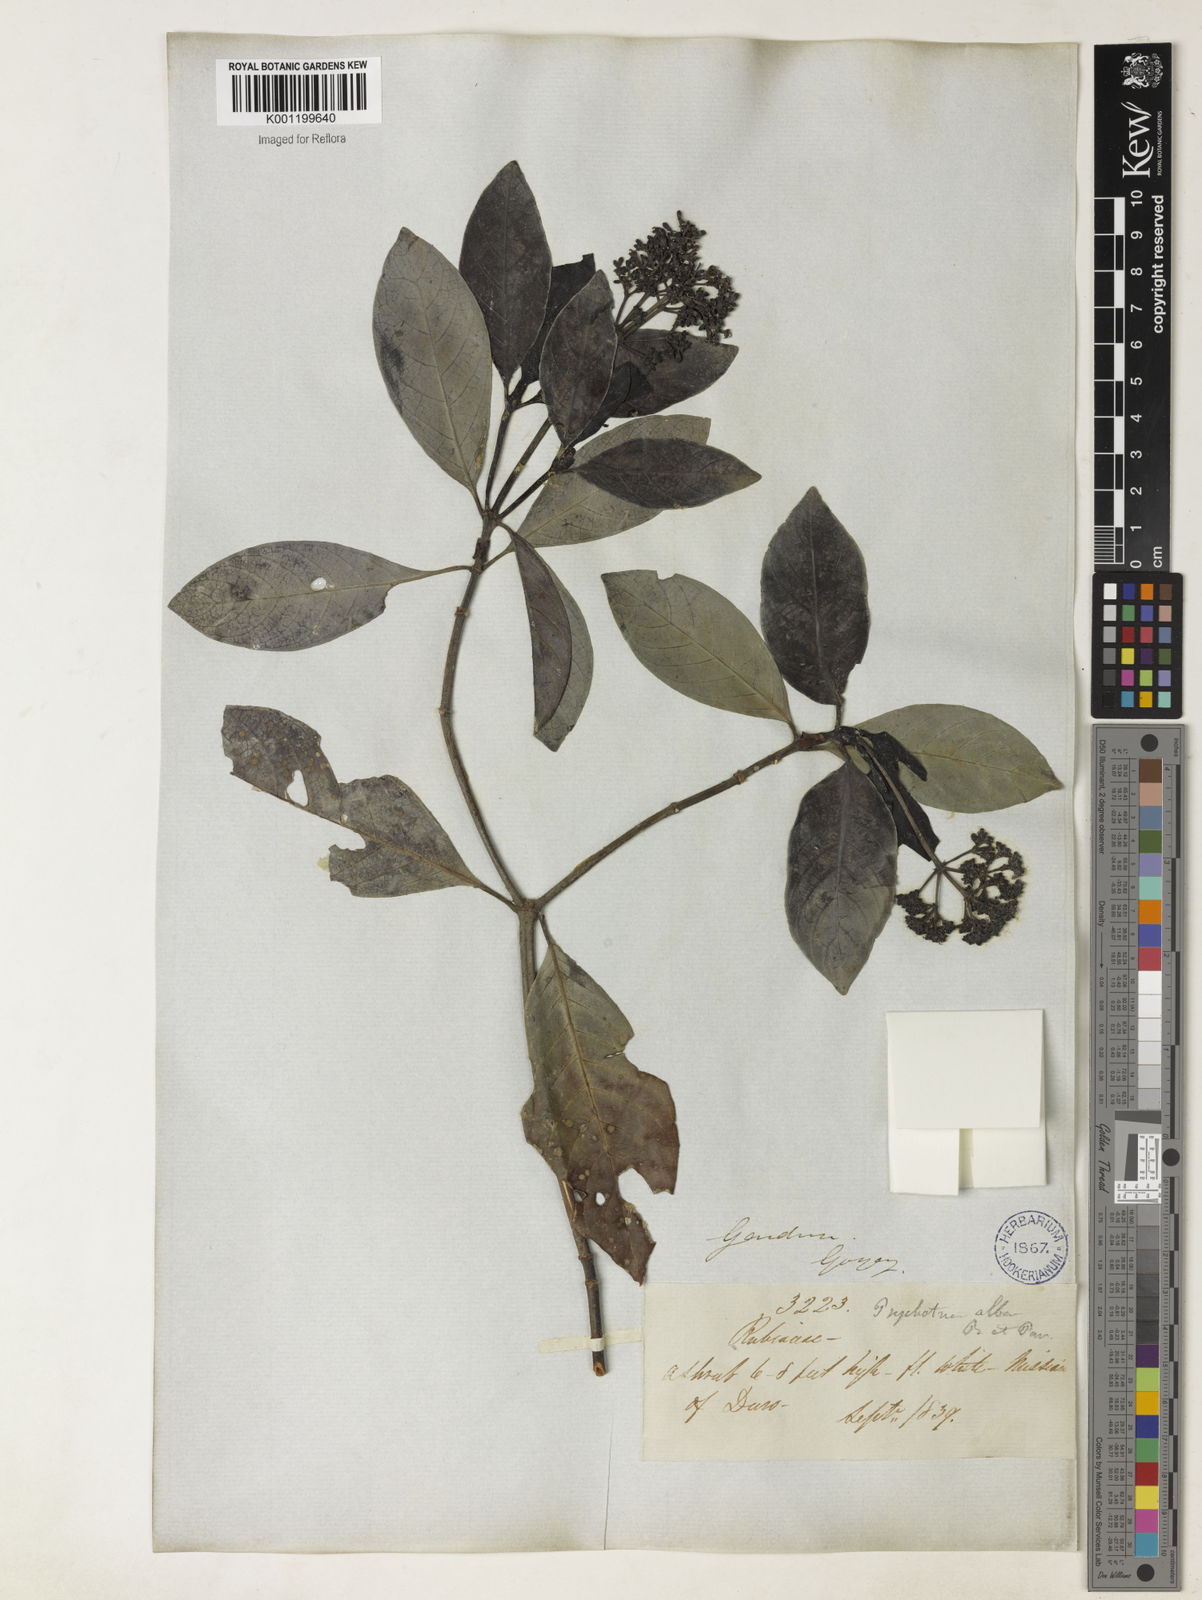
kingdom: Plantae
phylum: Tracheophyta
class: Magnoliopsida
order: Gentianales
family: Rubiaceae
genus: Psychotria
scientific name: Psychotria carthagenensis
